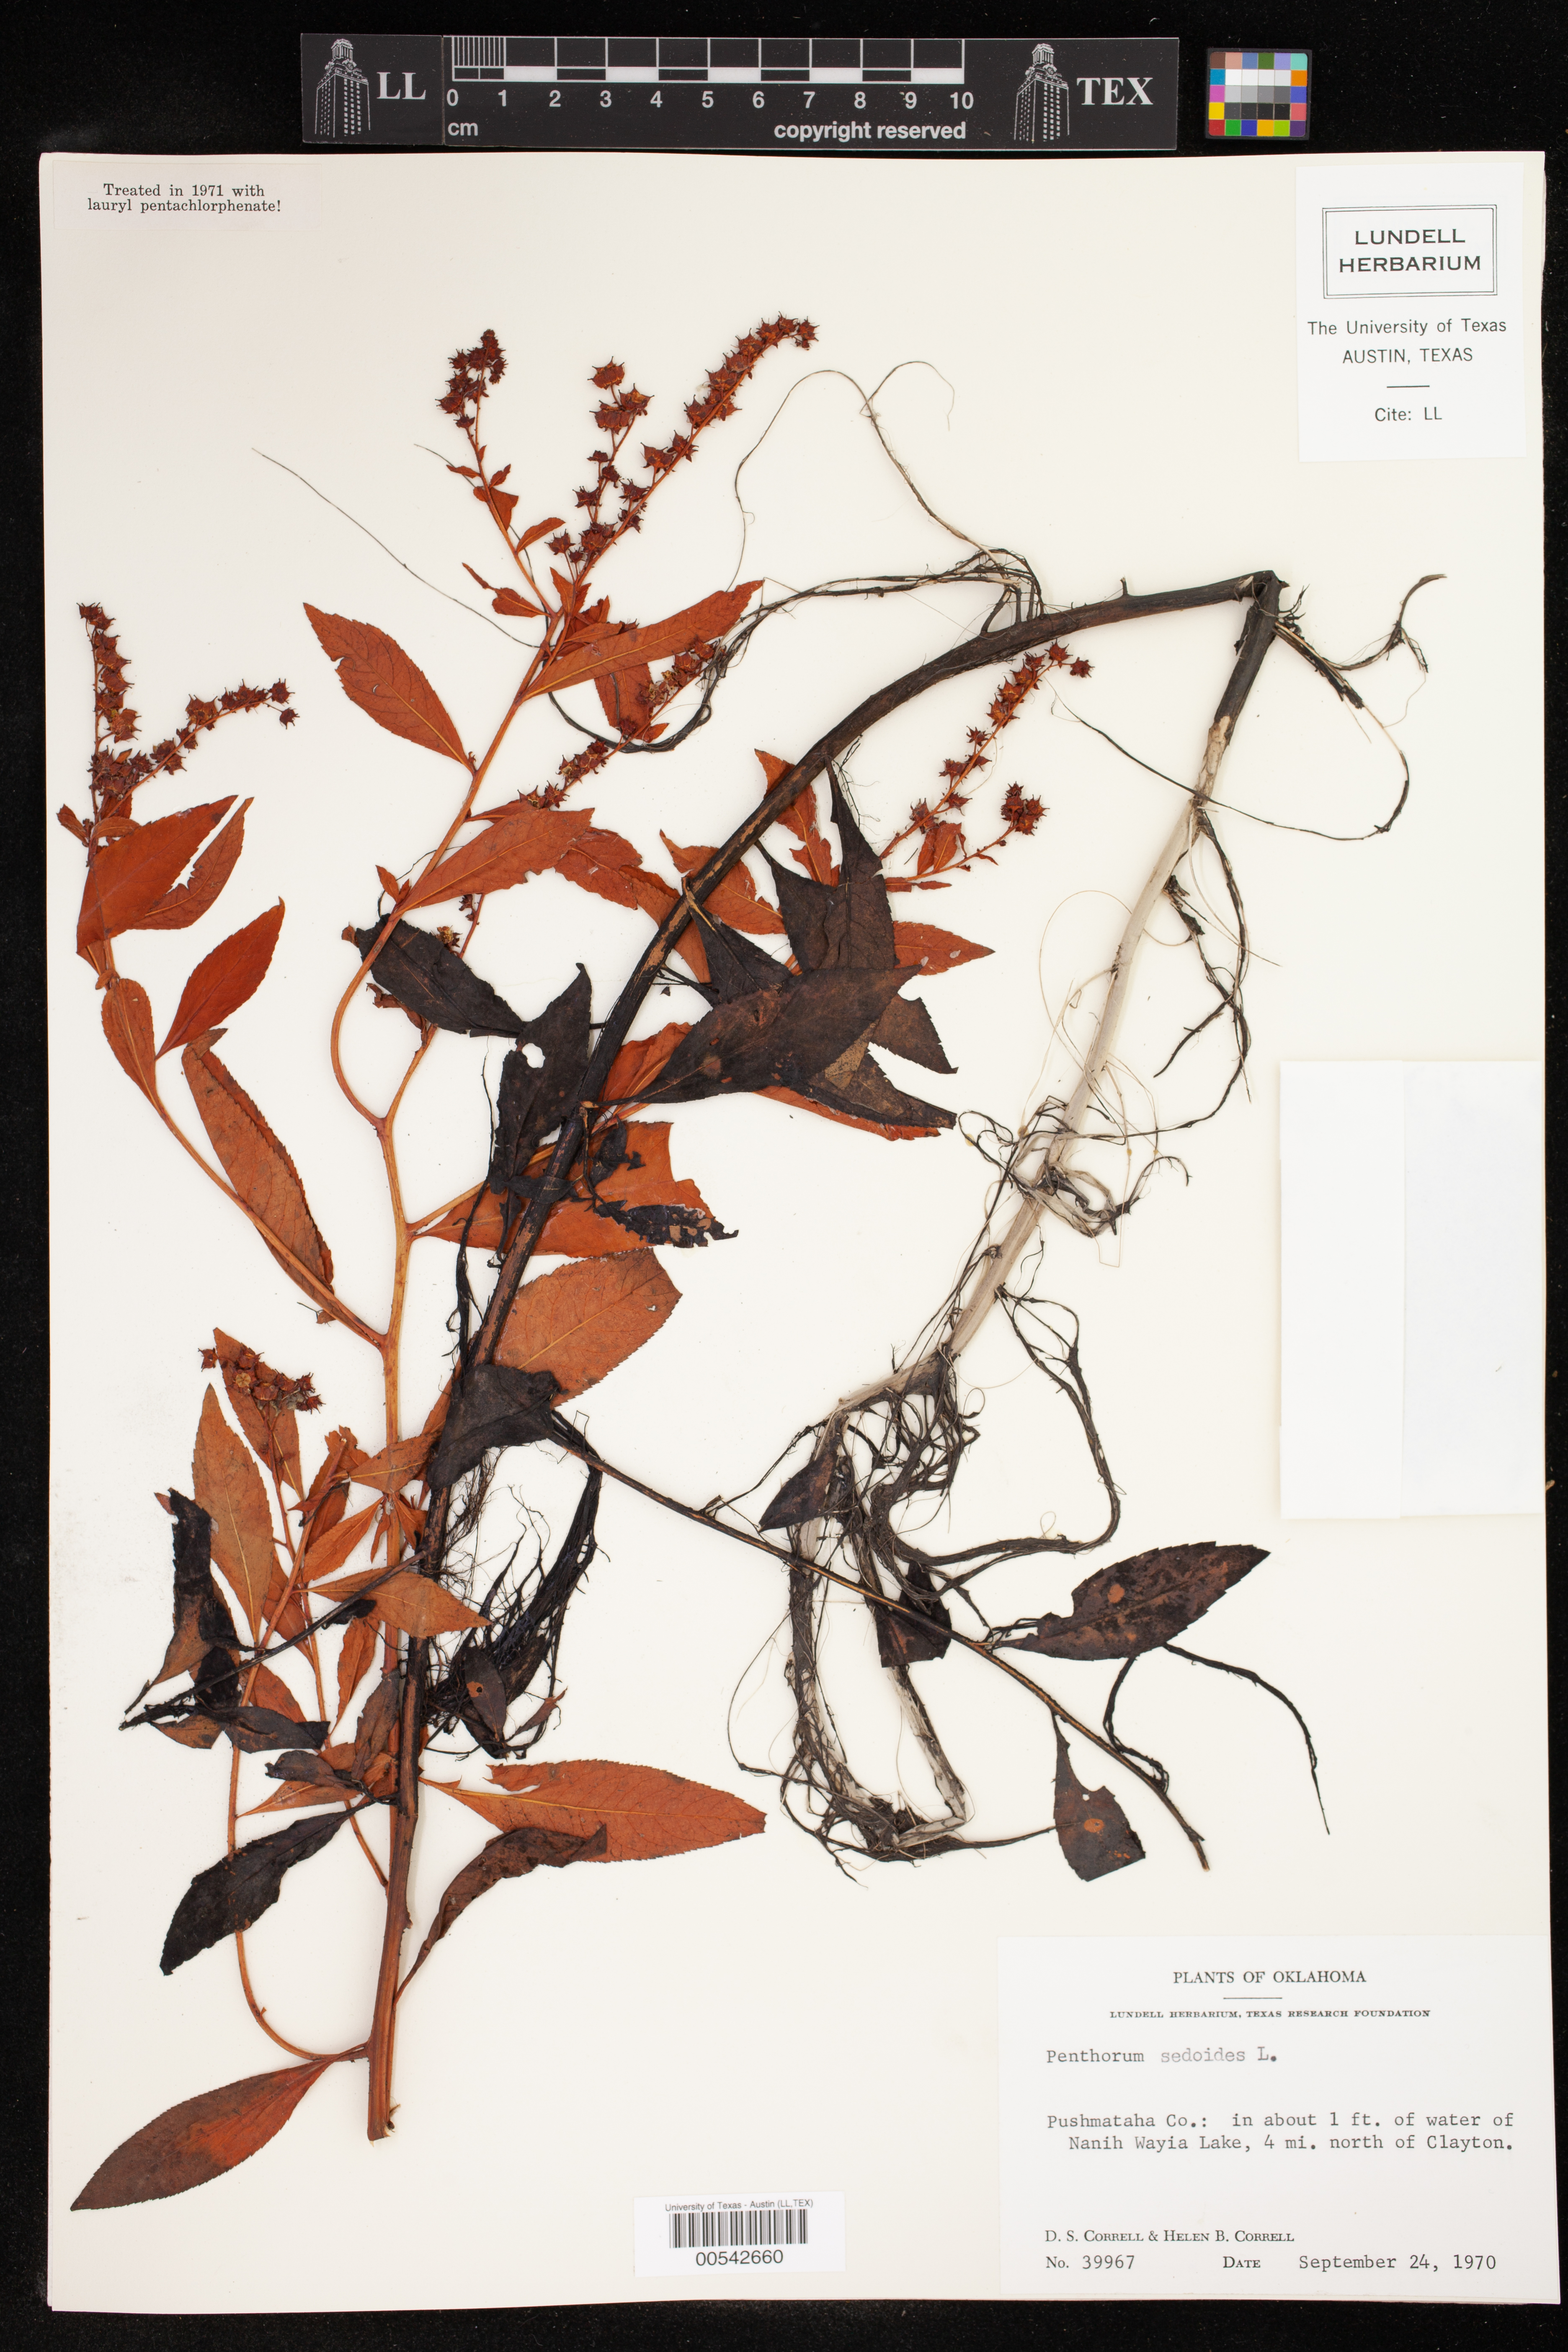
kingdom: Plantae
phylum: Tracheophyta
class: Magnoliopsida
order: Saxifragales
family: Penthoraceae
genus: Penthorum
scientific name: Penthorum sedoides
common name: Ditch stonecrop
